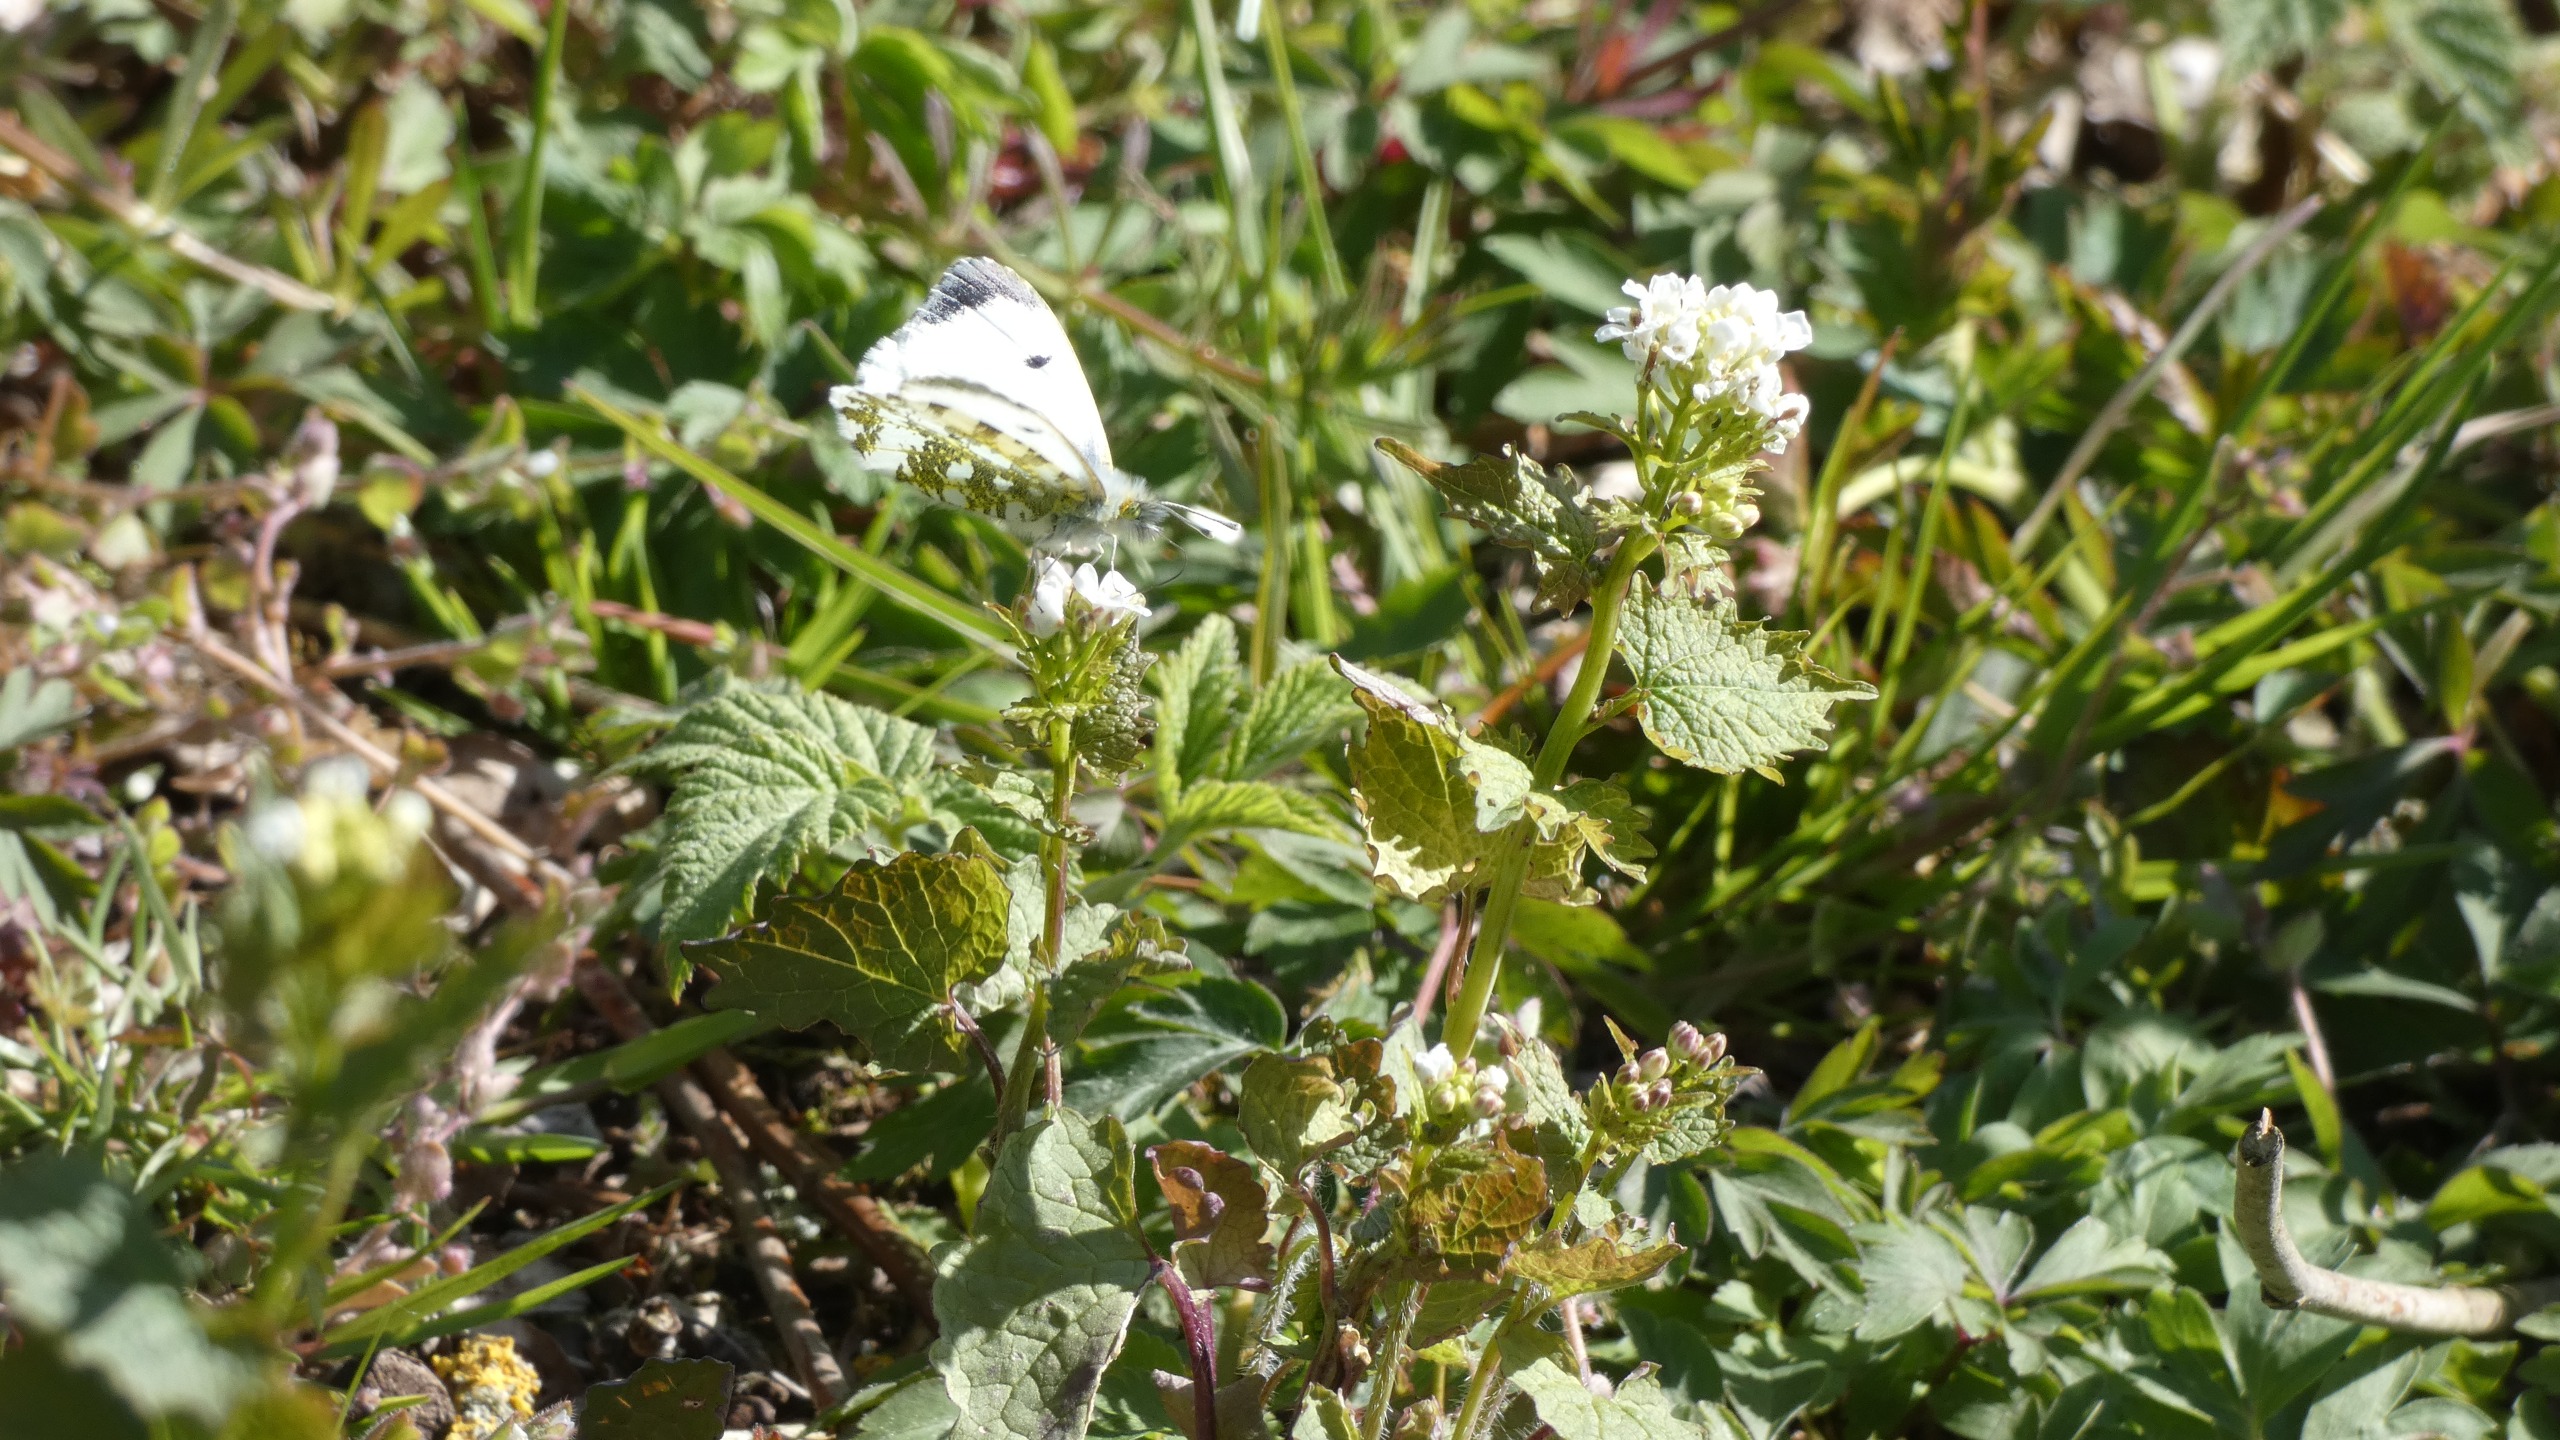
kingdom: Animalia
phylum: Arthropoda
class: Insecta
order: Lepidoptera
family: Pieridae
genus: Anthocharis
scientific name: Anthocharis cardamines
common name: Aurora
